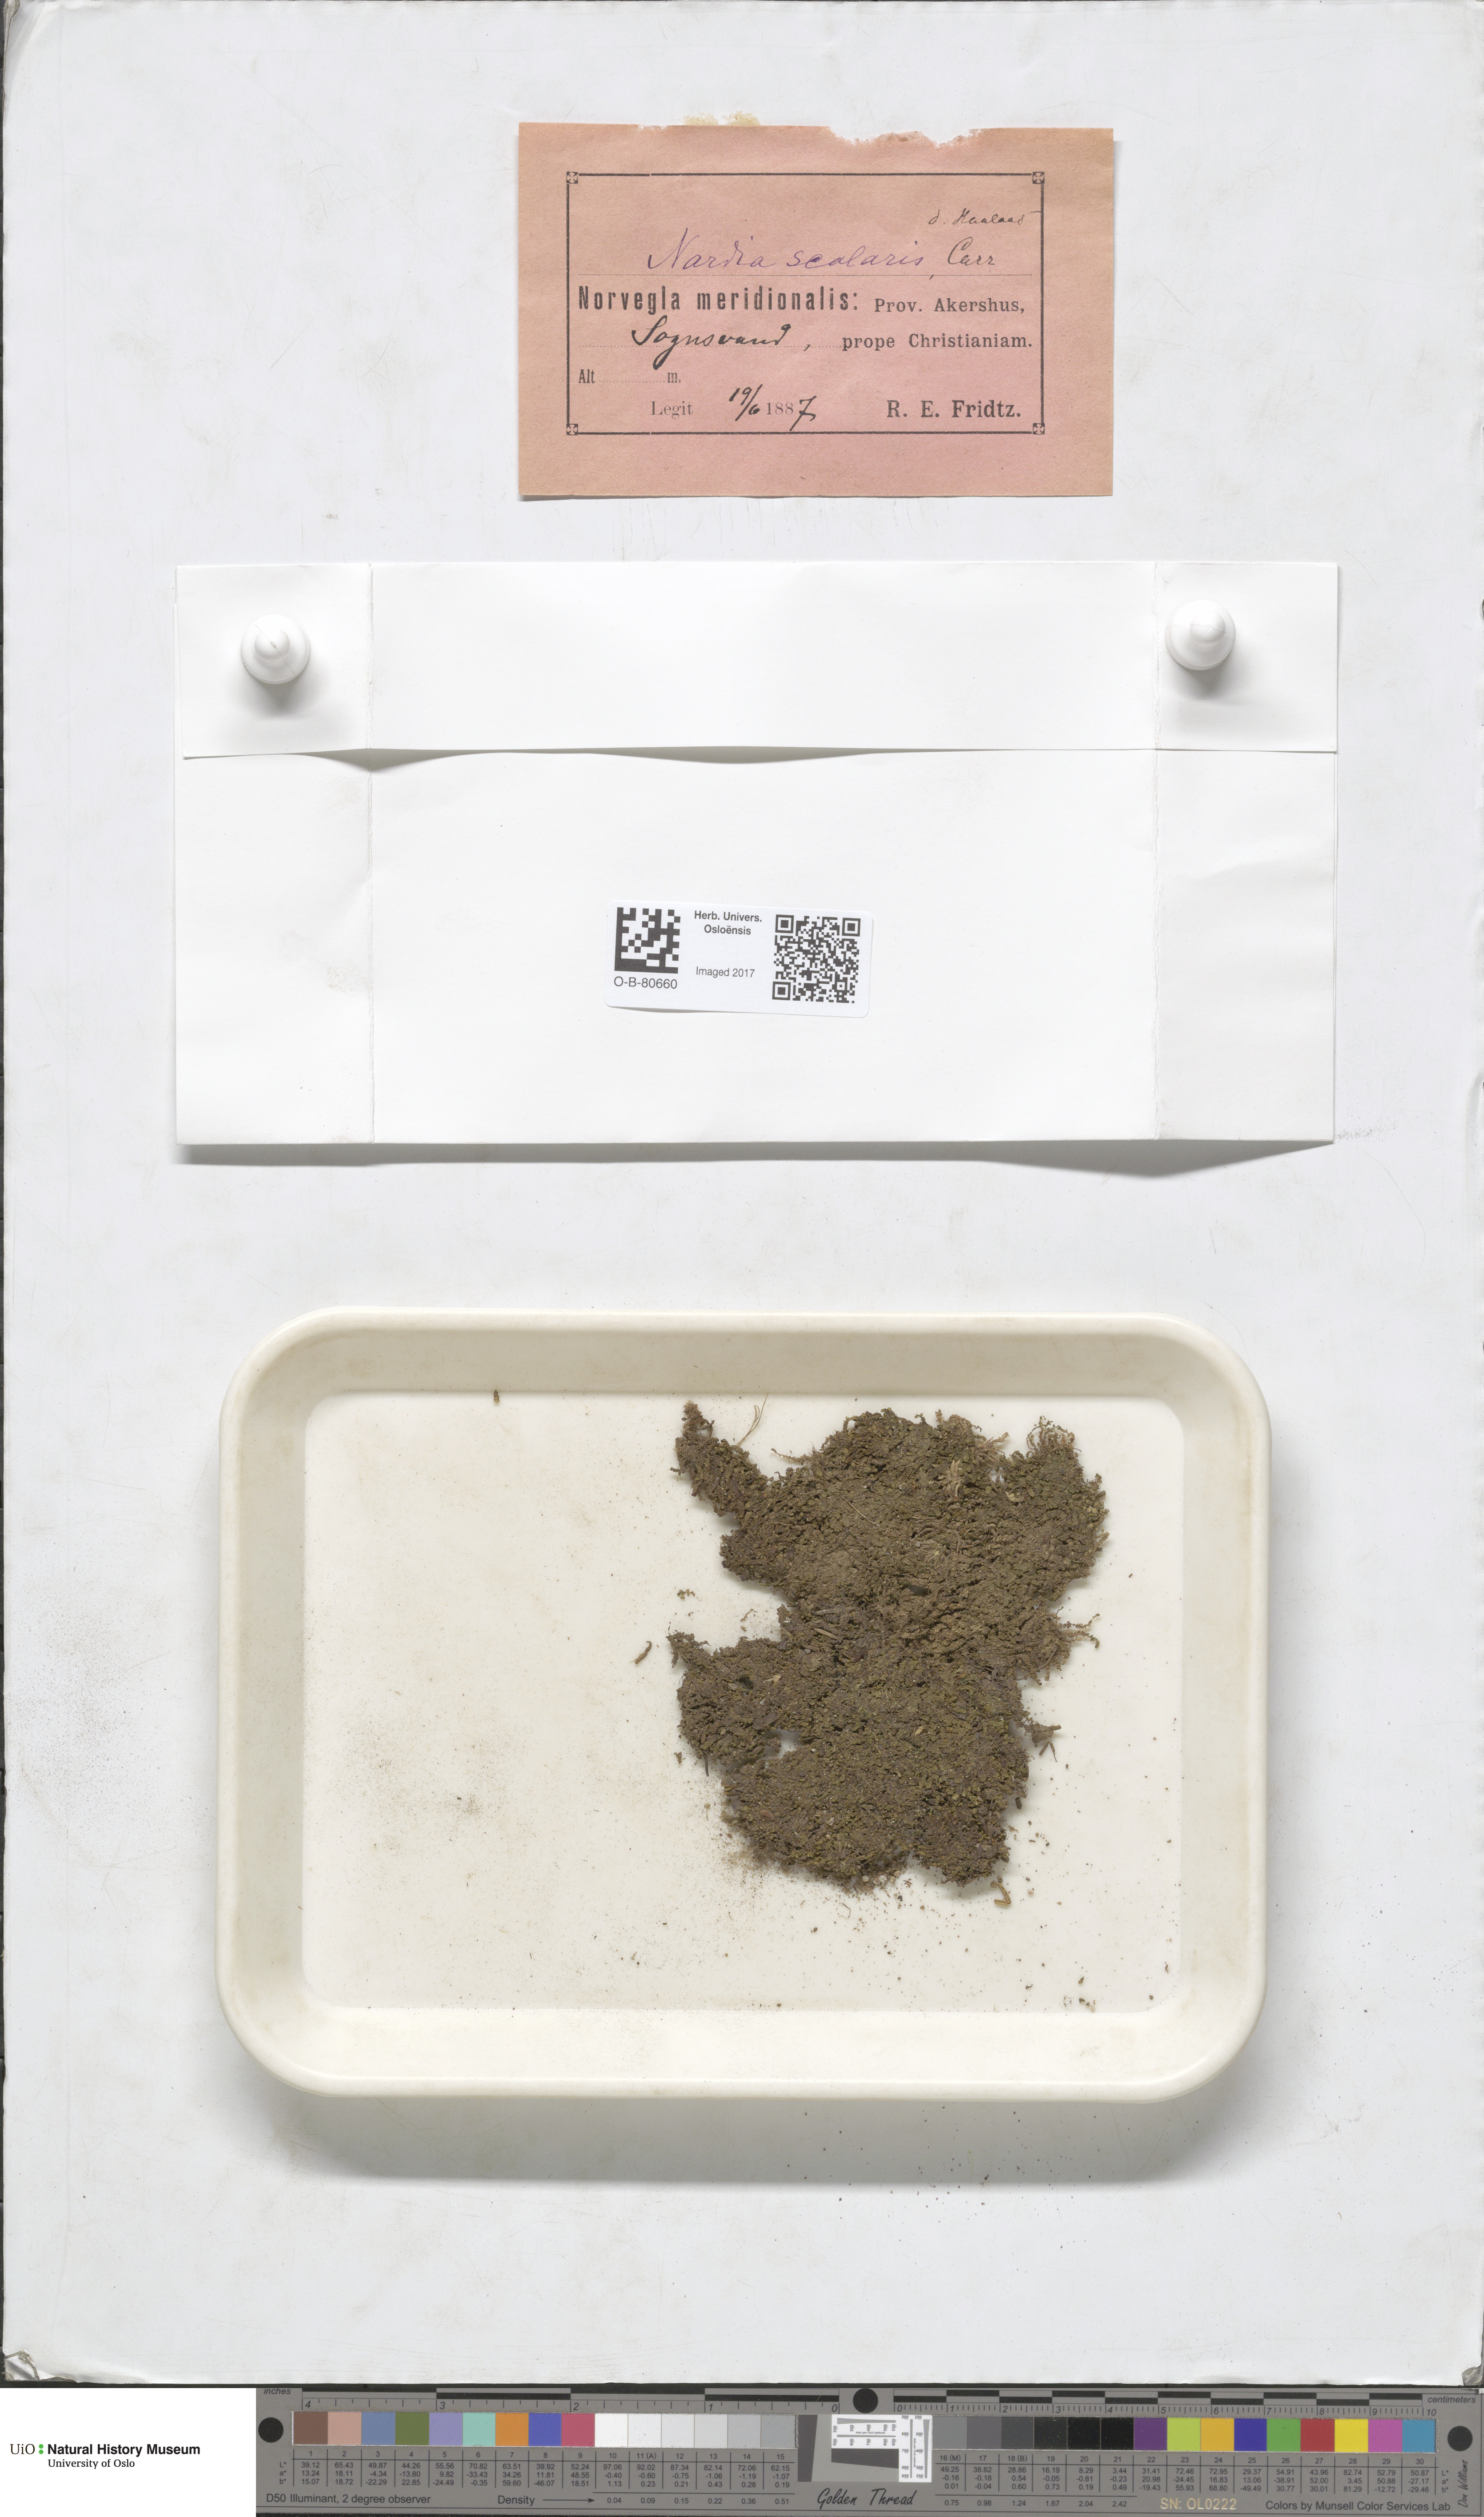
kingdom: Plantae
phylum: Marchantiophyta
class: Jungermanniopsida
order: Jungermanniales
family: Gymnomitriaceae
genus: Nardia
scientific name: Nardia scalaris
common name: Ladder flapwort
